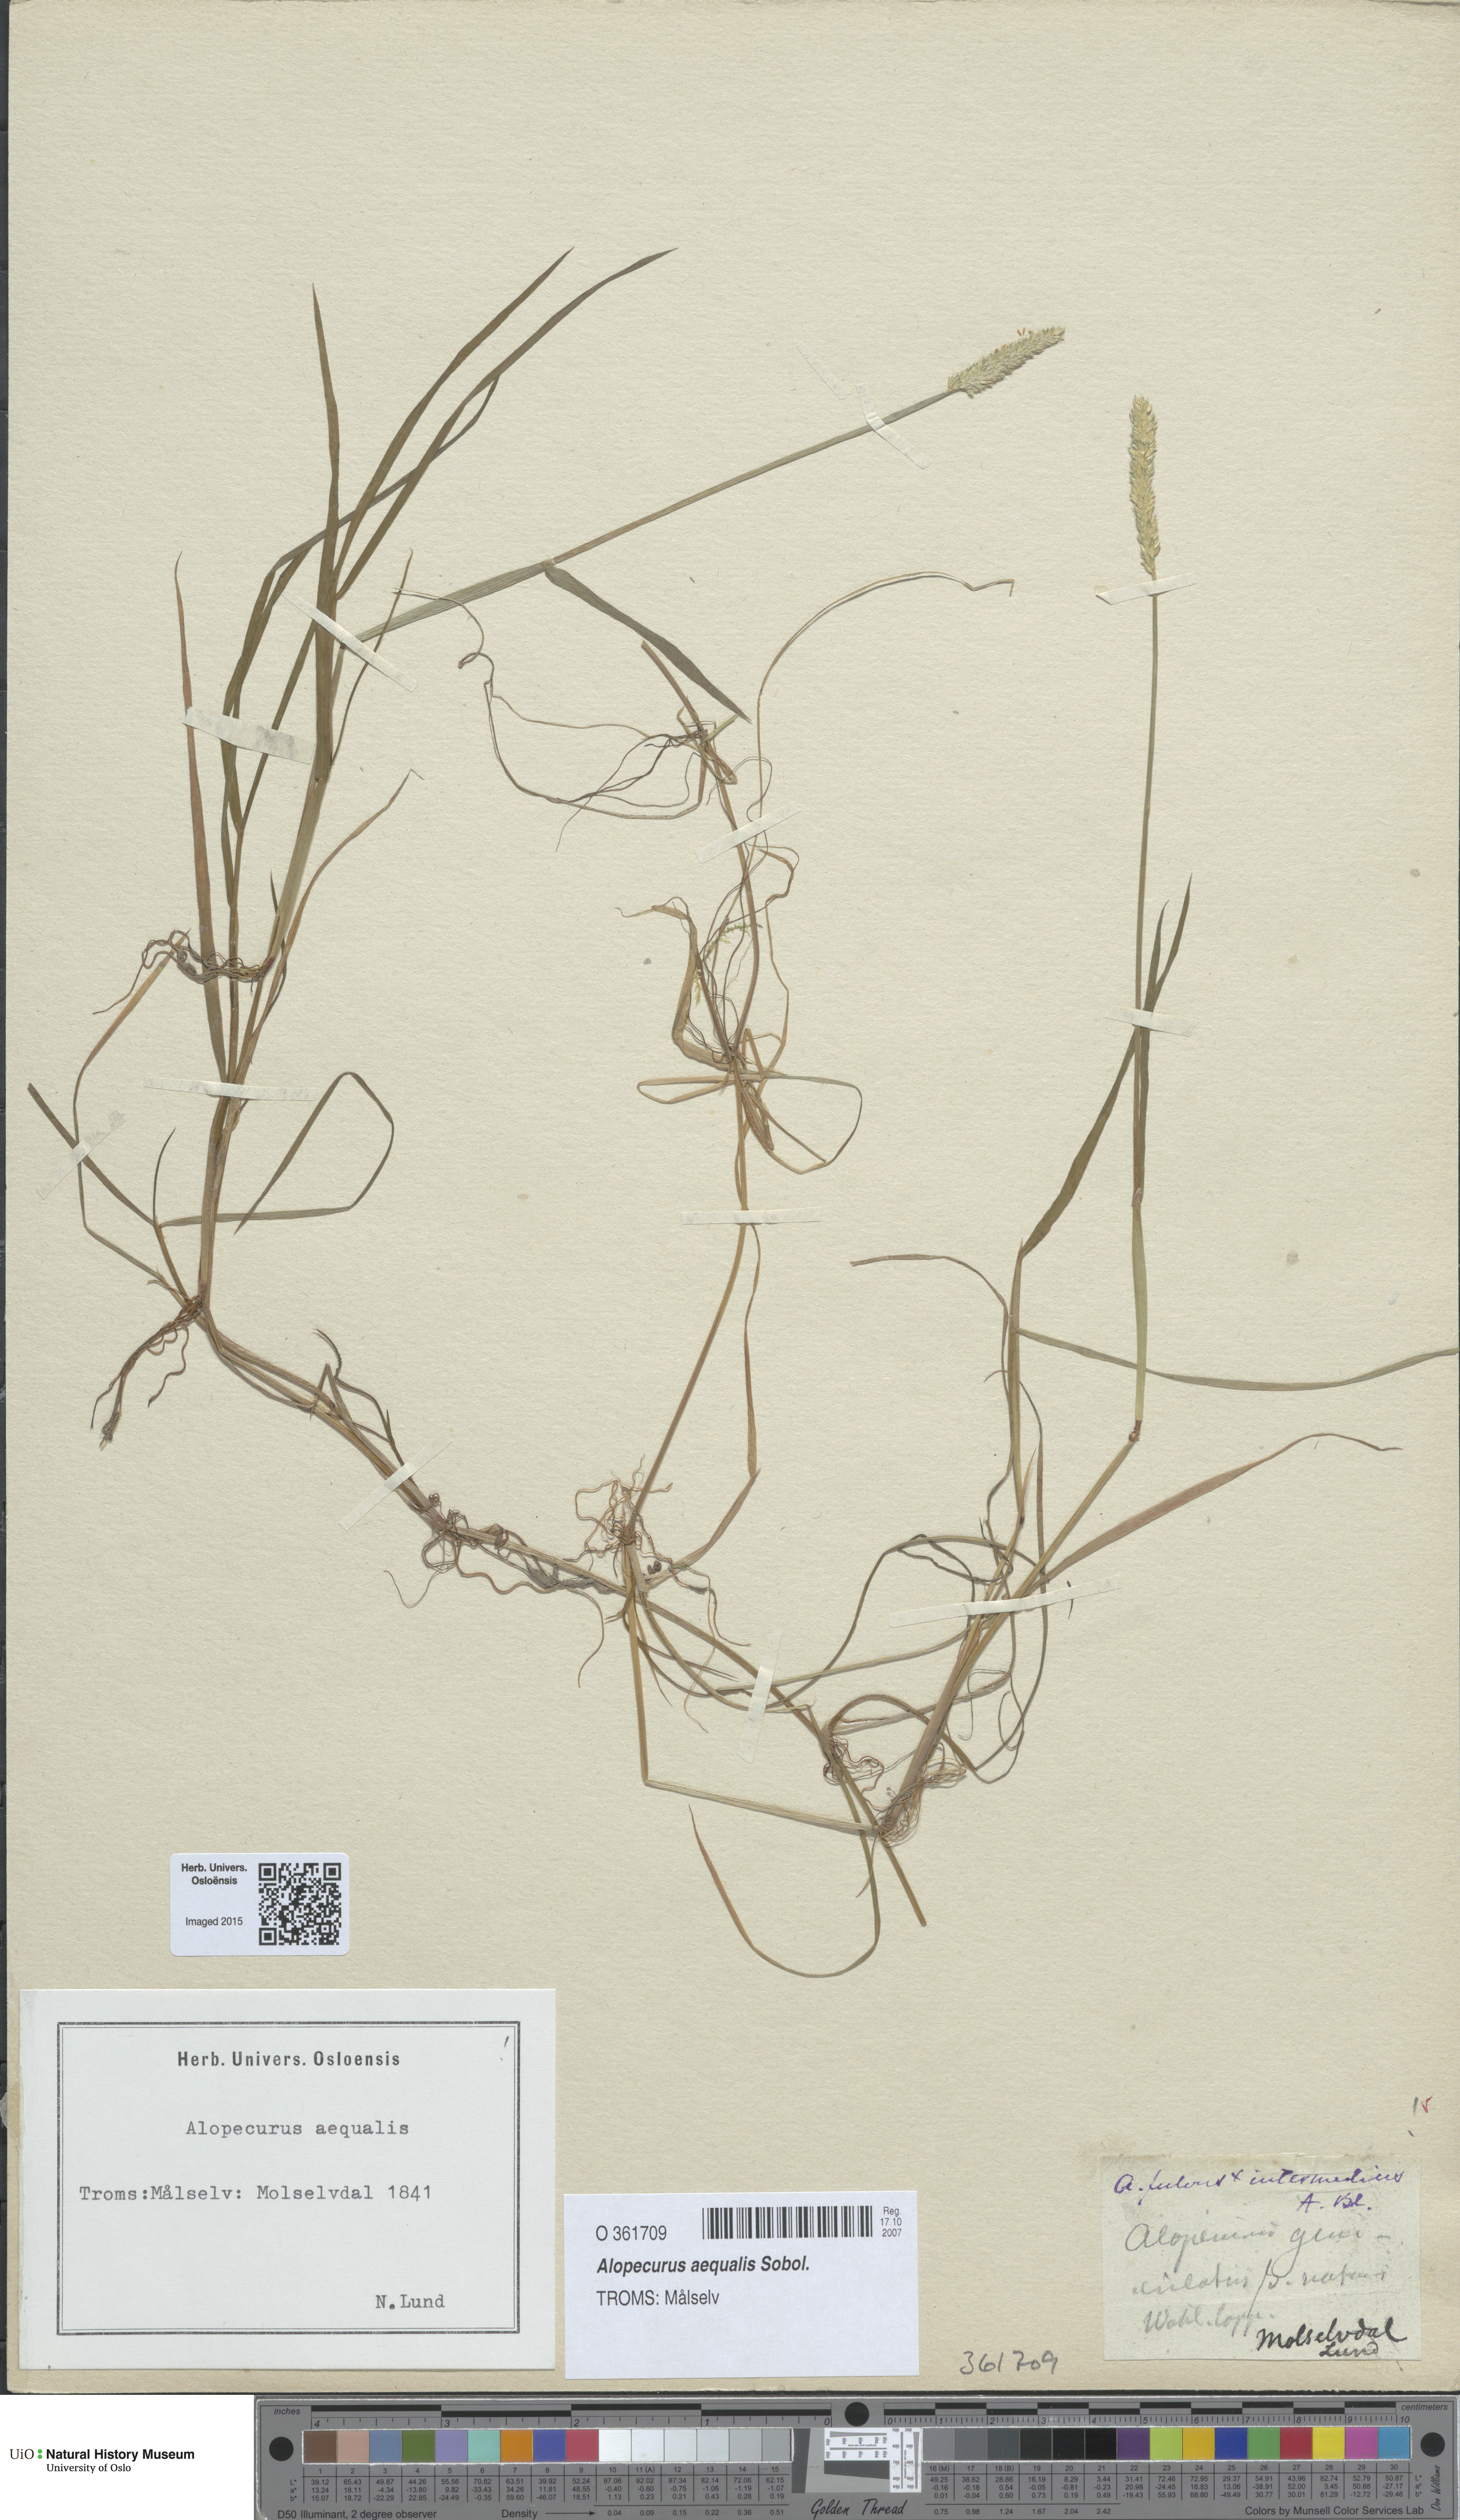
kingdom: Plantae
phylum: Tracheophyta
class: Liliopsida
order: Poales
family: Poaceae
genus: Alopecurus
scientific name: Alopecurus aequalis
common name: Orange foxtail
